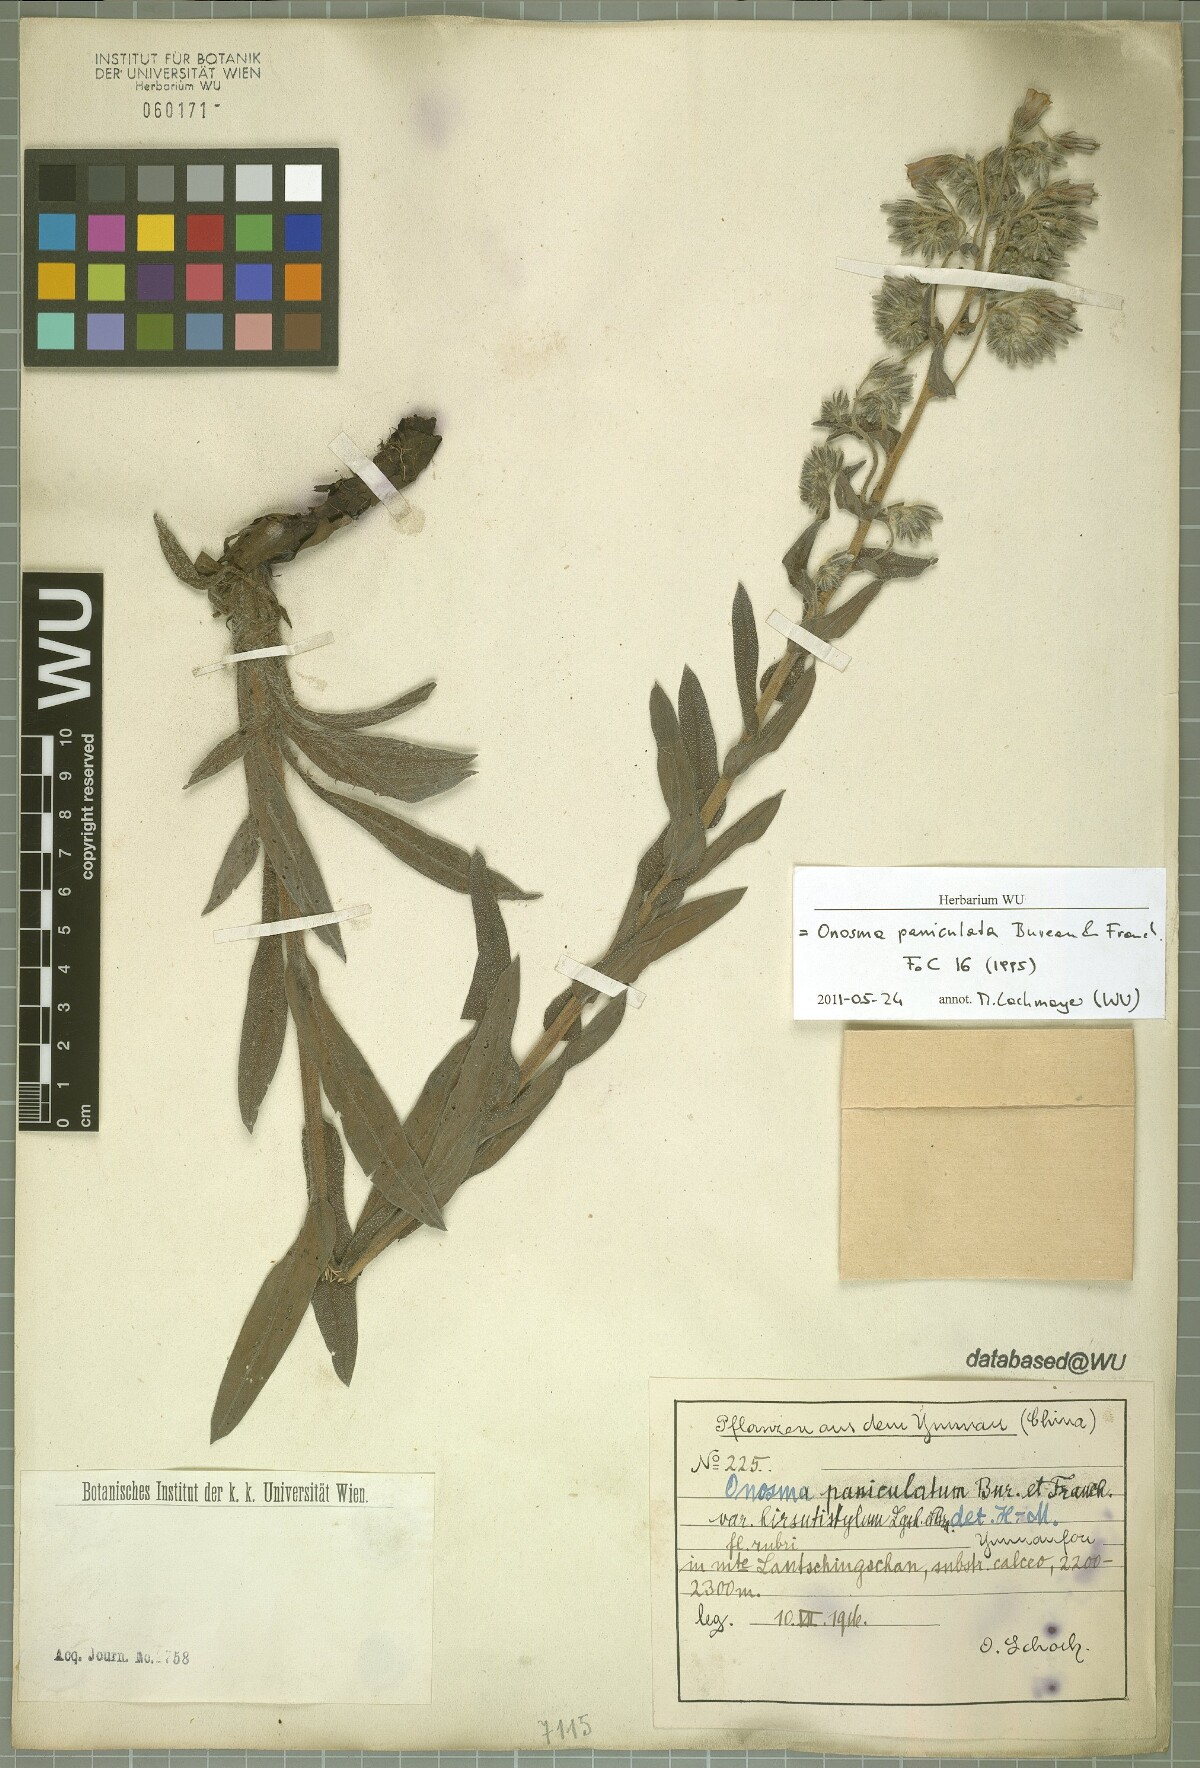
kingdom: Plantae
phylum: Tracheophyta
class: Magnoliopsida
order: Boraginales
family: Boraginaceae
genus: Maharanga
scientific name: Maharanga paniculata
